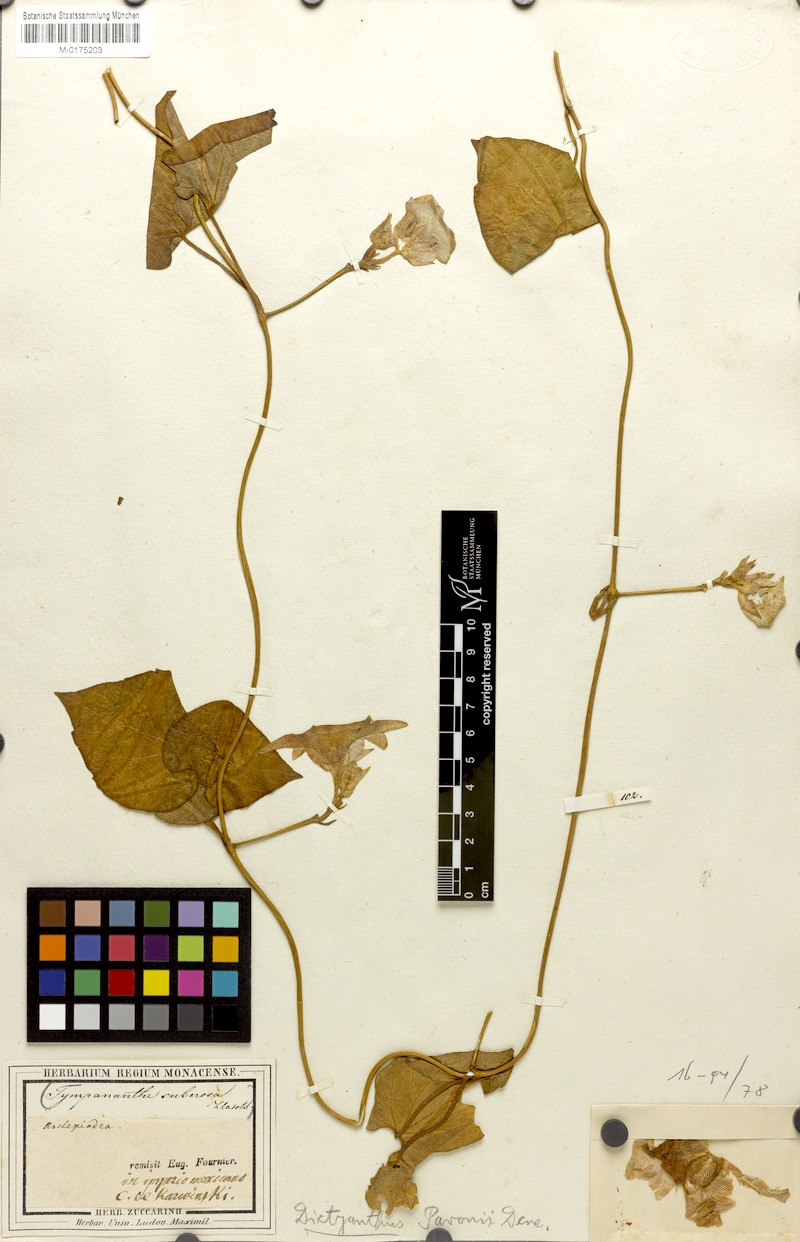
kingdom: Plantae
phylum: Tracheophyta
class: Magnoliopsida
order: Gentianales
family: Apocynaceae
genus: Dictyanthus
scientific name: Dictyanthus pavonii
